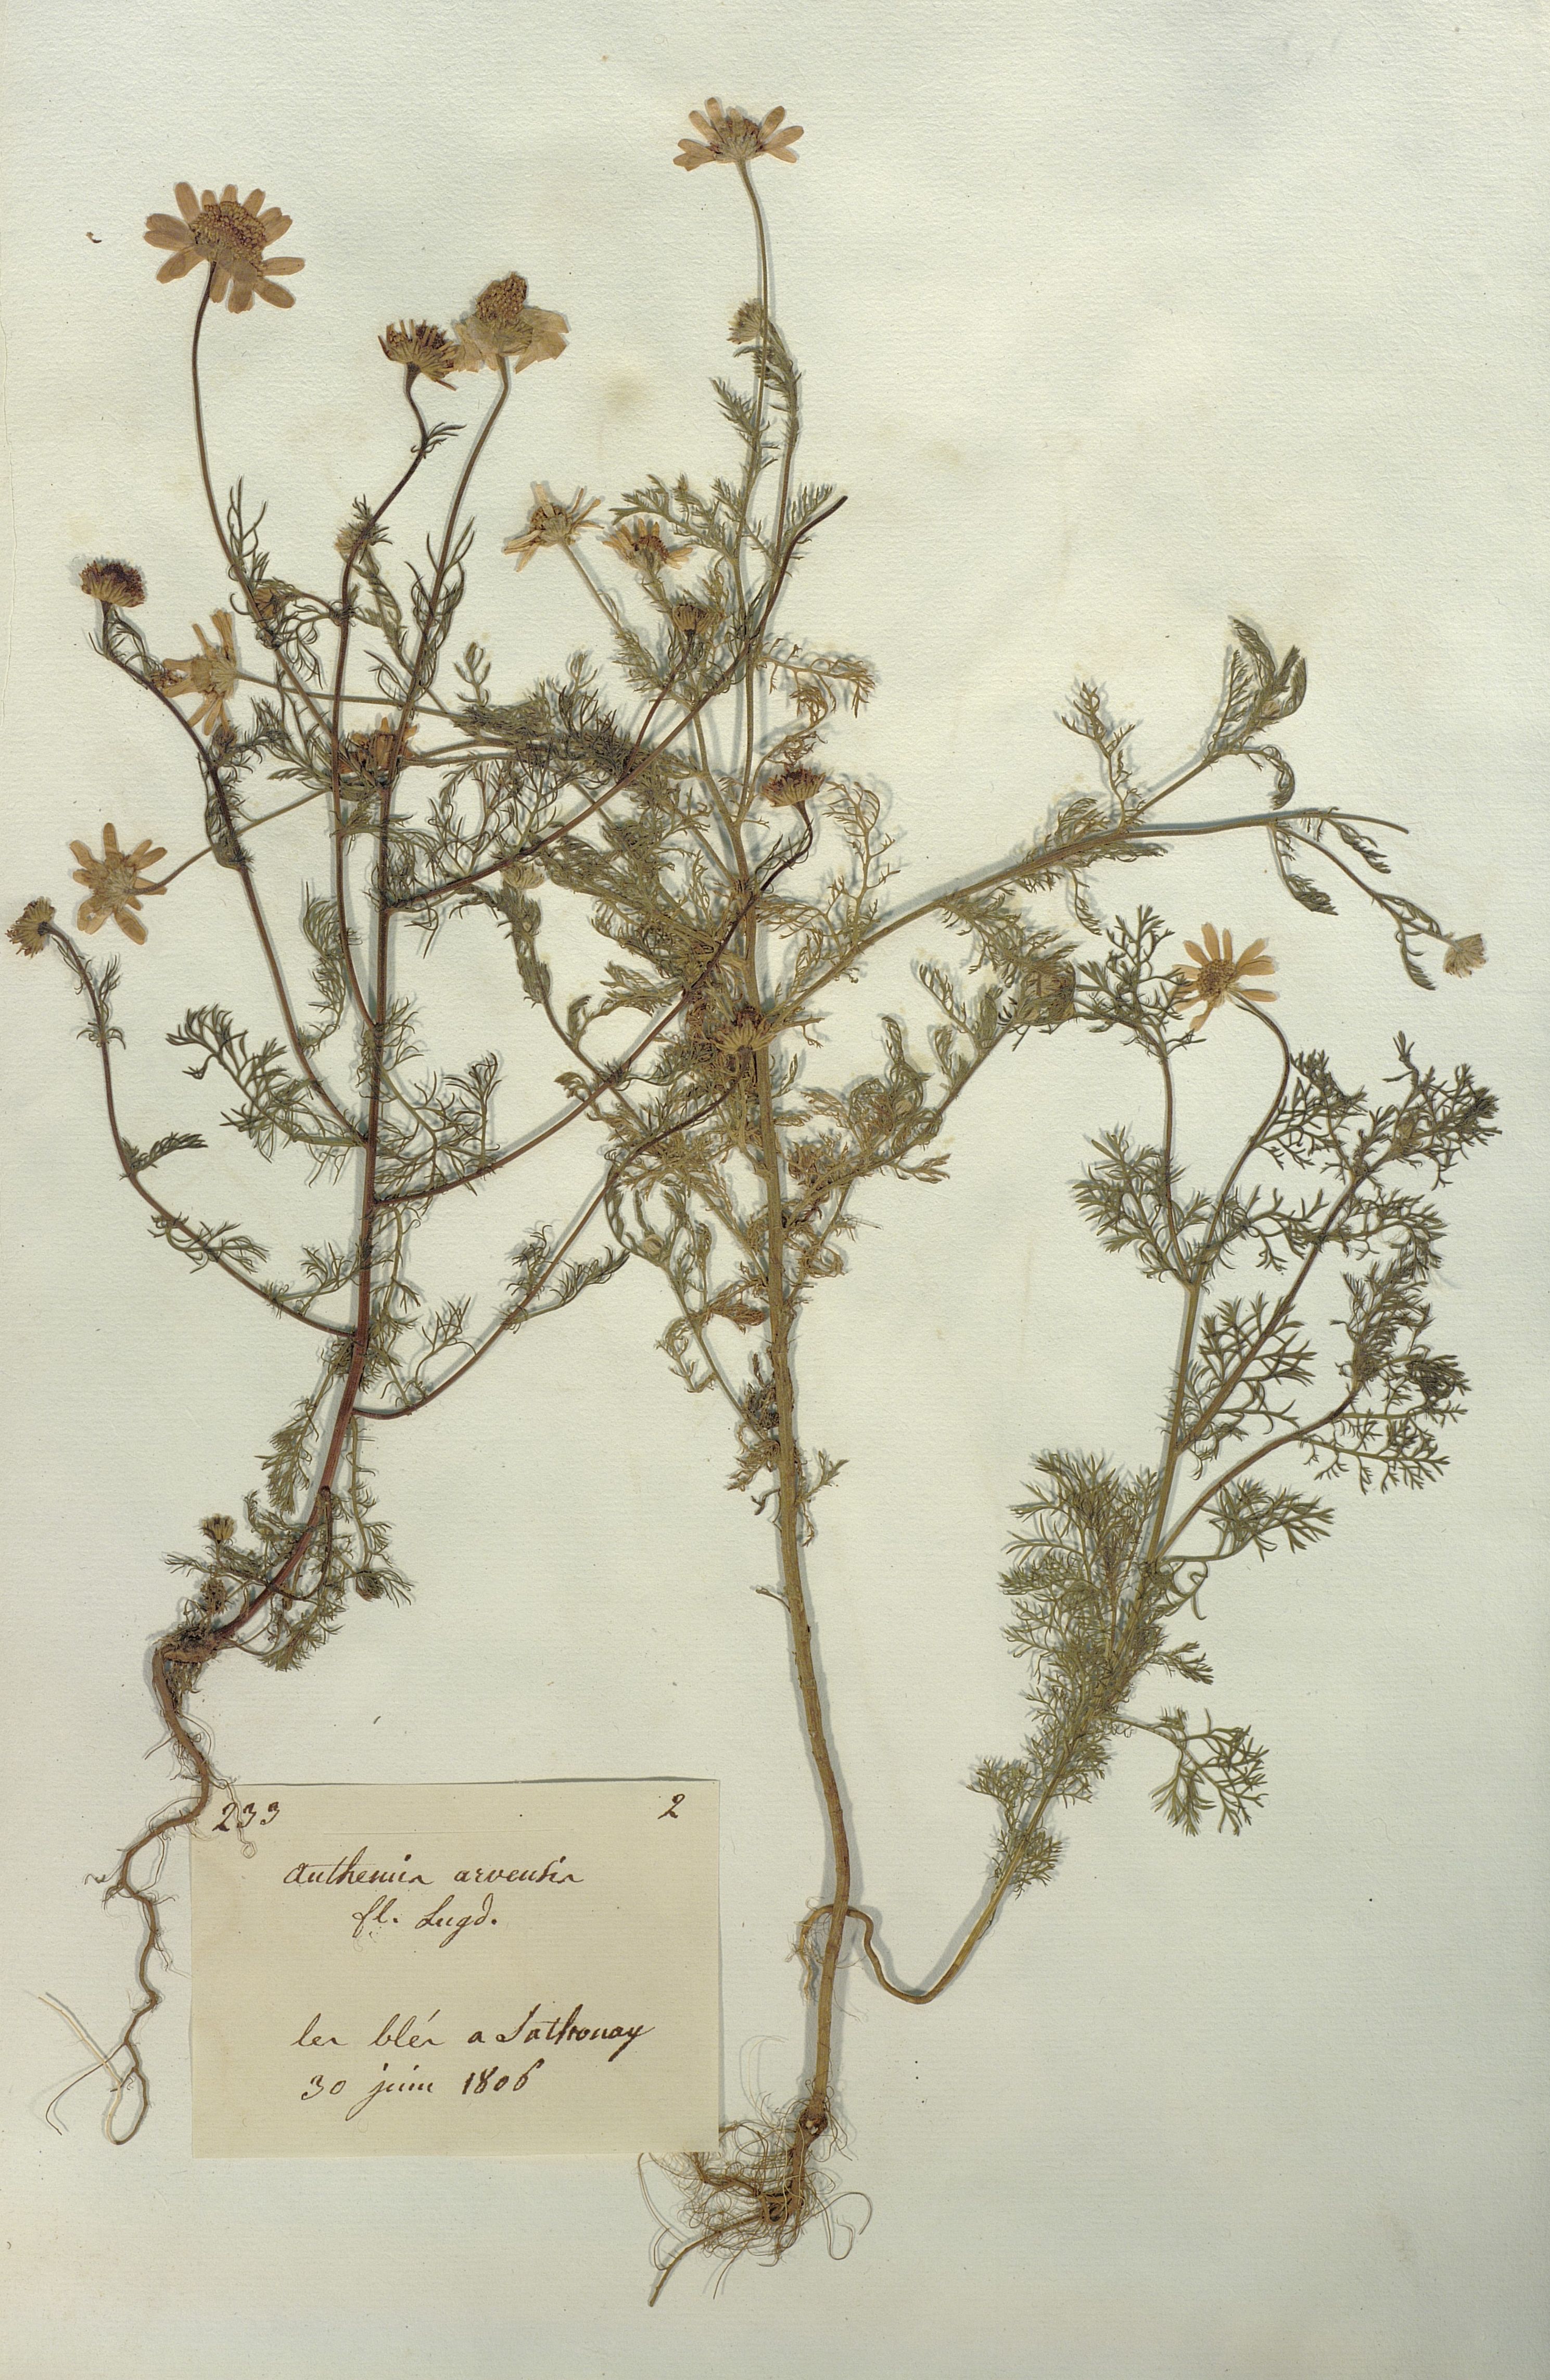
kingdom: Plantae
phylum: Tracheophyta
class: Magnoliopsida
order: Asterales
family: Asteraceae
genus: Anthemis
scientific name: Anthemis arvensis
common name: Corn chamomile
